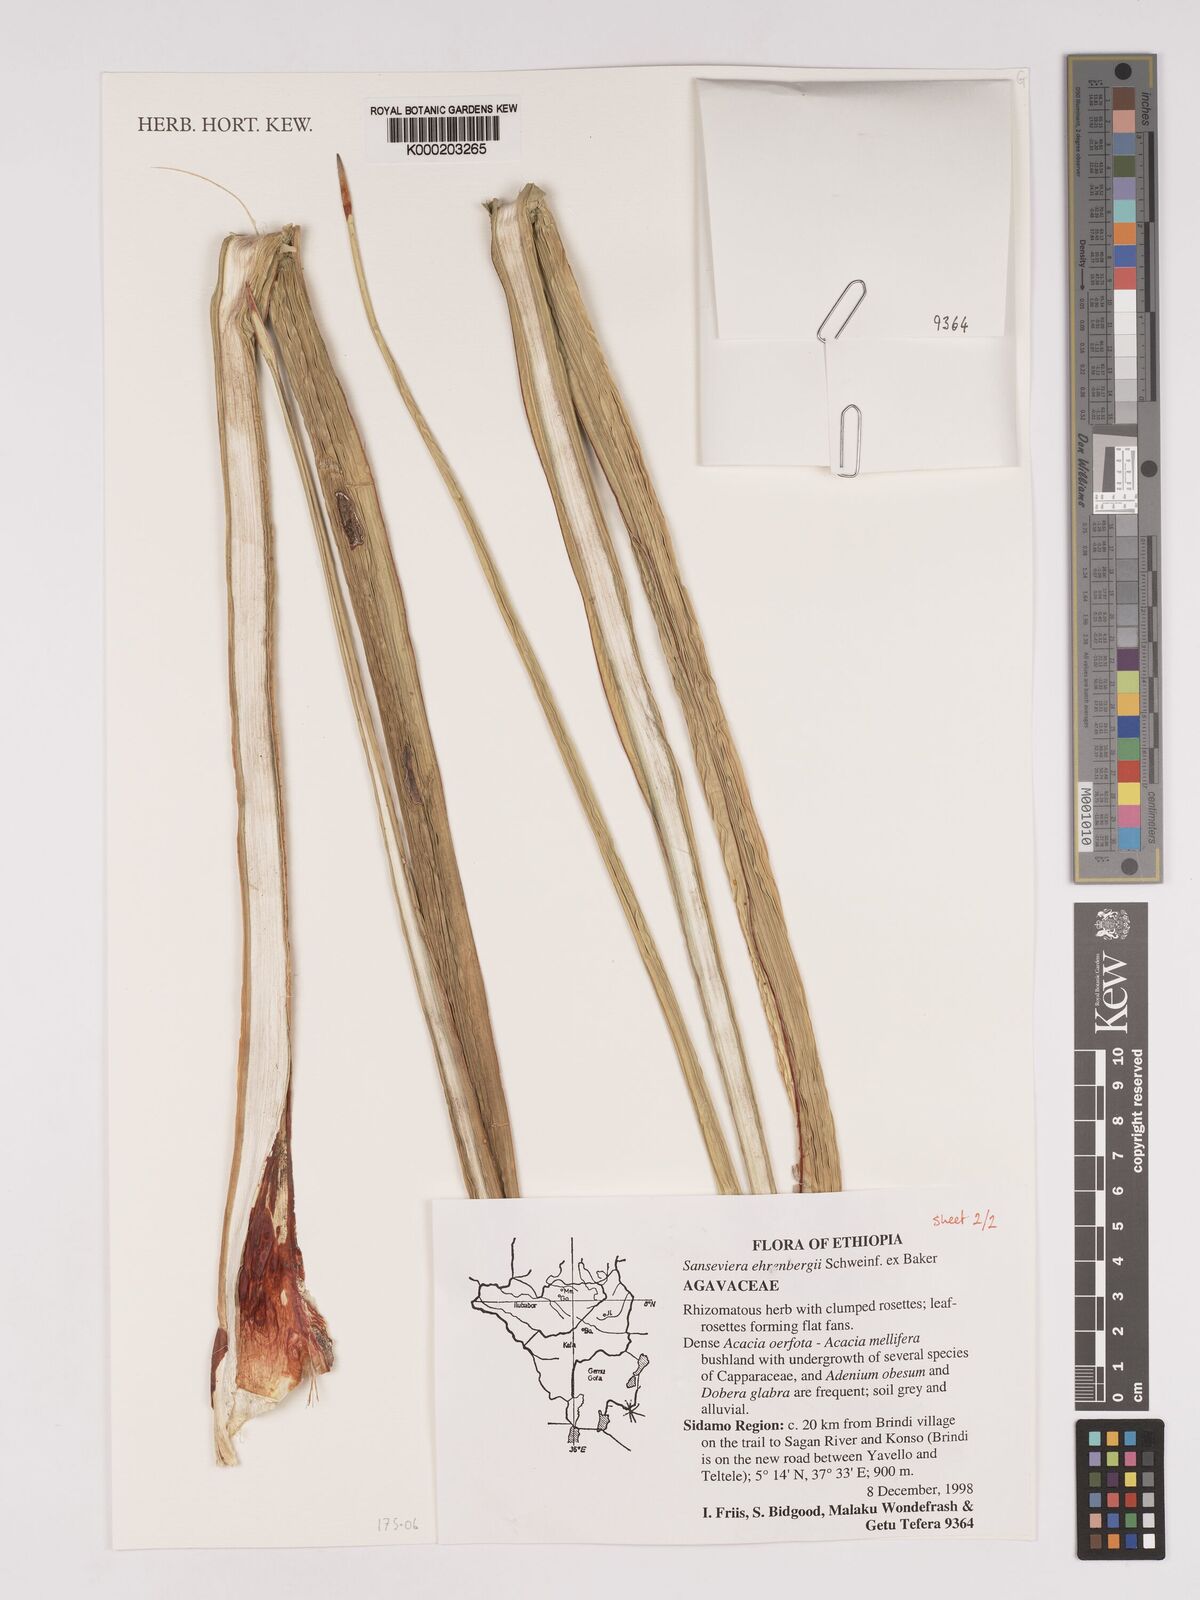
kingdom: Plantae
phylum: Tracheophyta
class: Liliopsida
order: Asparagales
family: Asparagaceae
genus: Dracaena
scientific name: Dracaena hanningtonii
